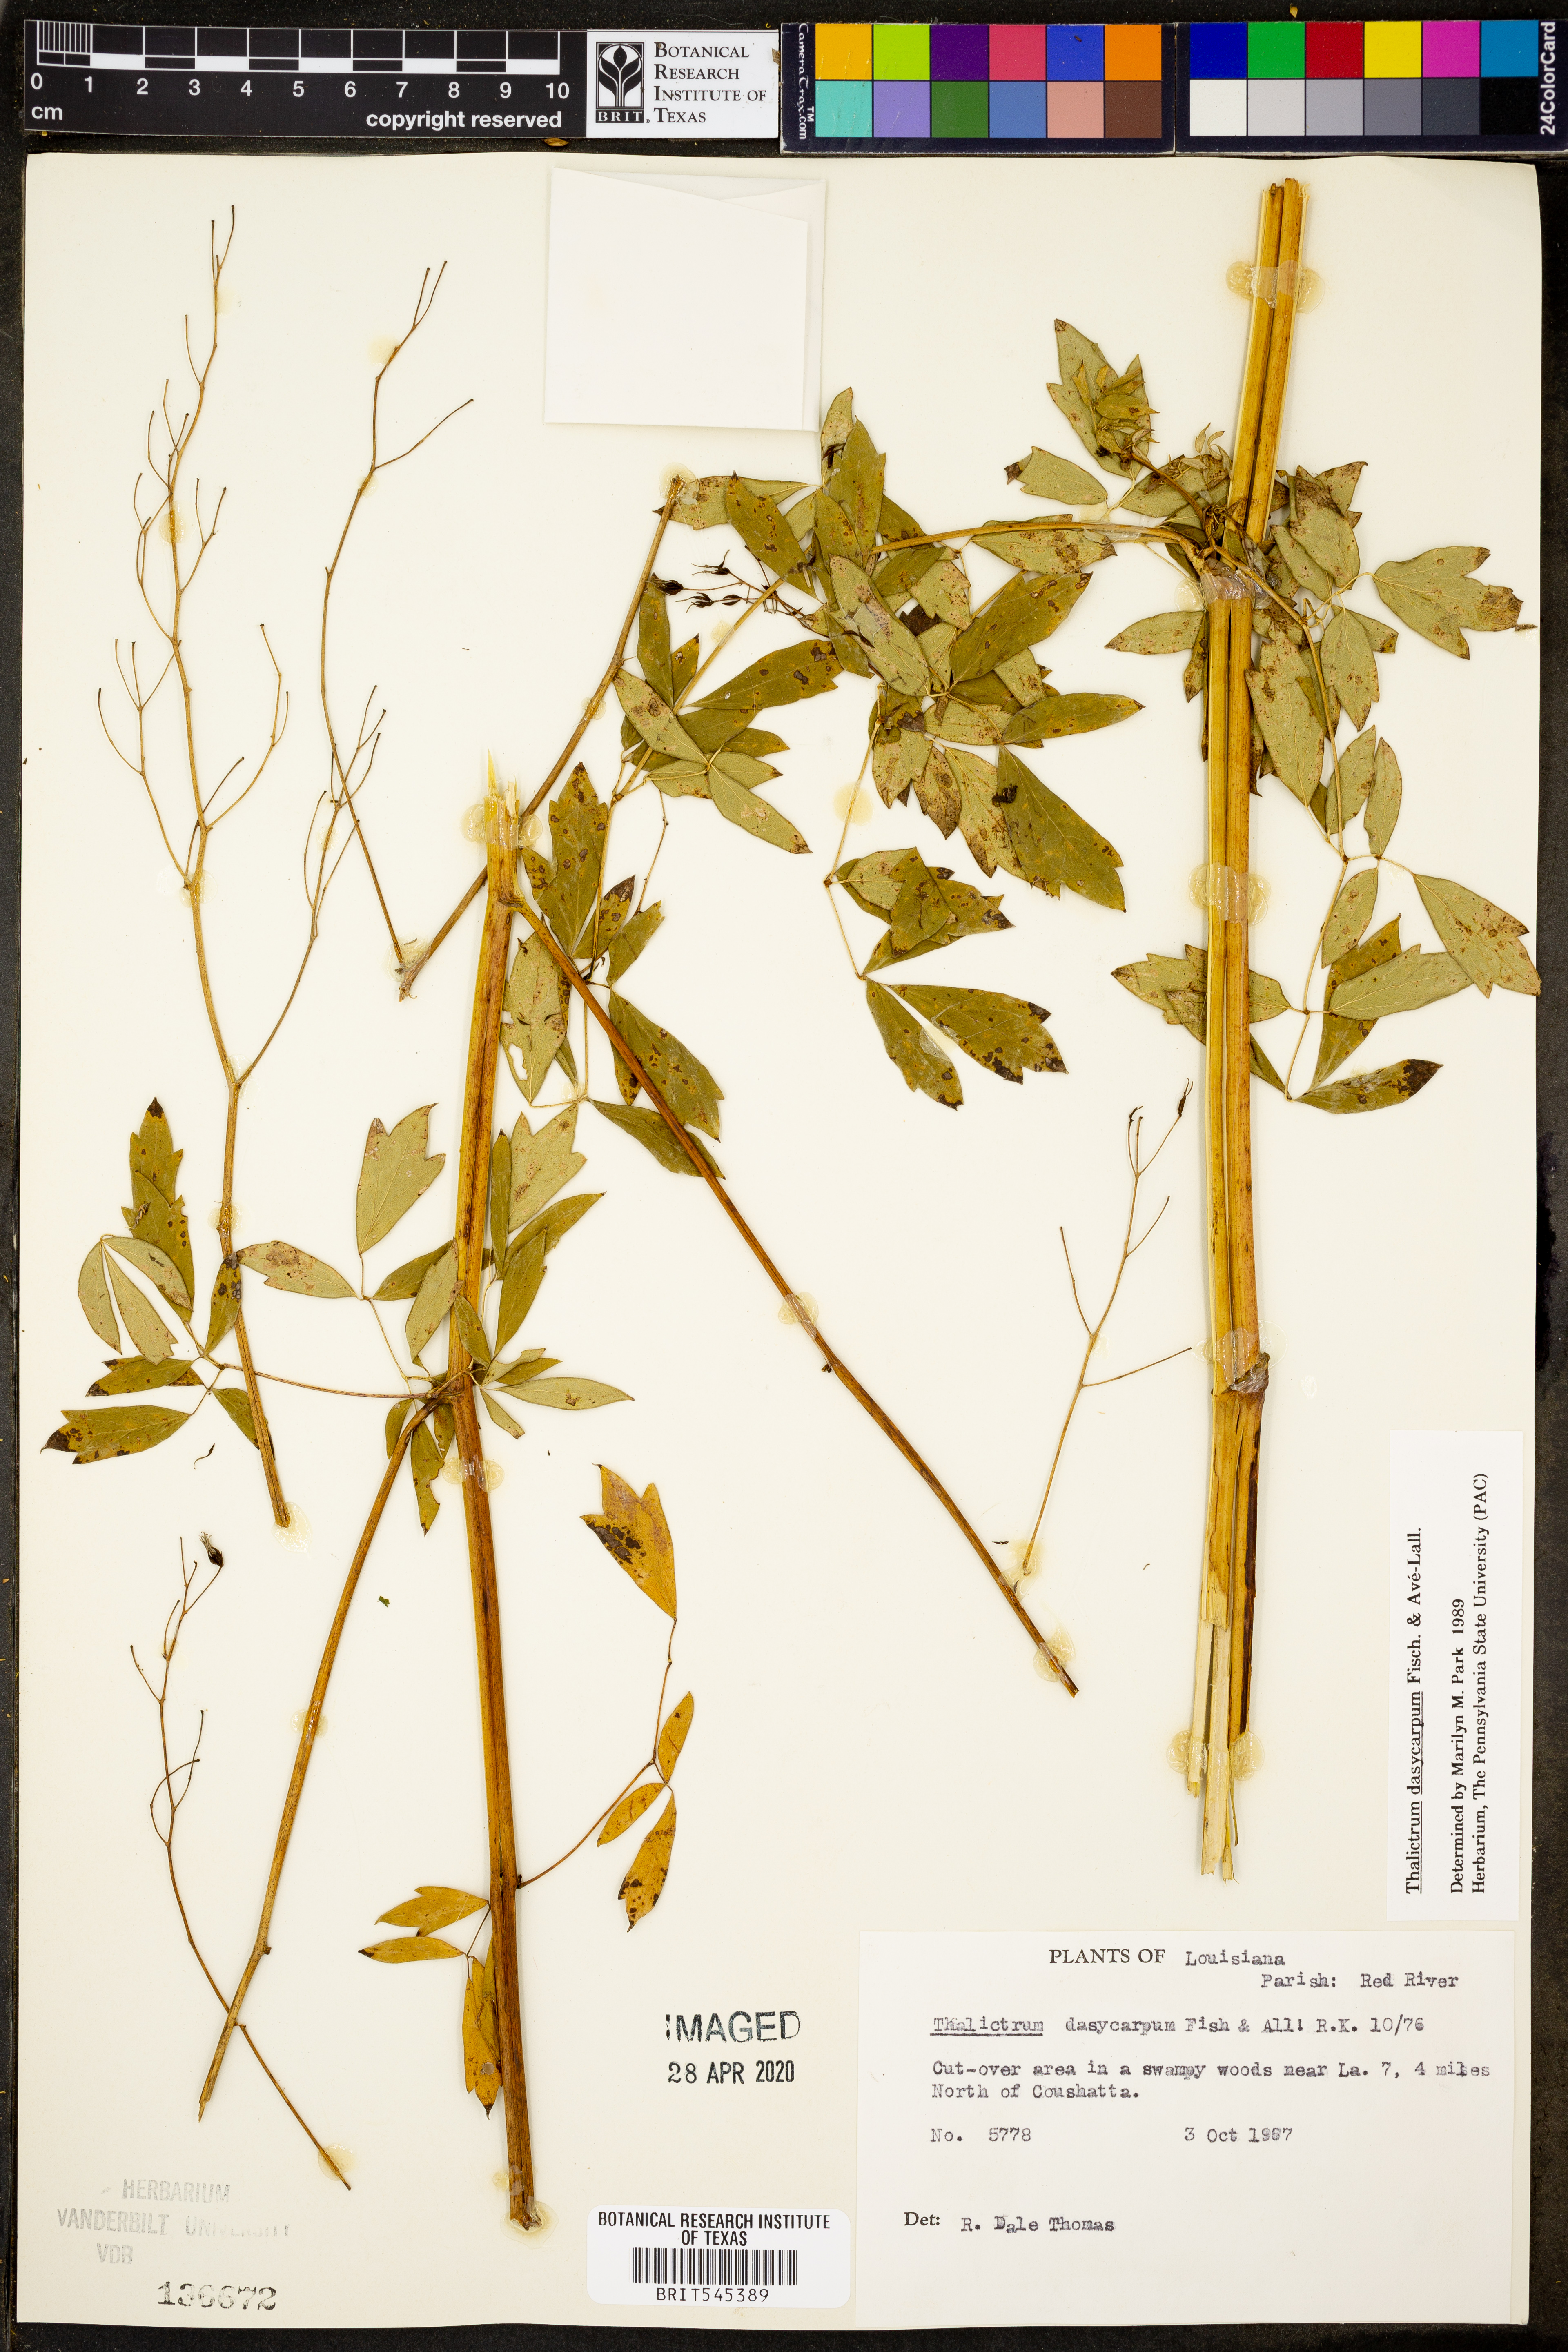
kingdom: Plantae
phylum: Tracheophyta
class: Magnoliopsida
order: Ranunculales
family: Ranunculaceae
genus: Thalictrum
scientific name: Thalictrum dasycarpum
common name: Purple meadow-rue
